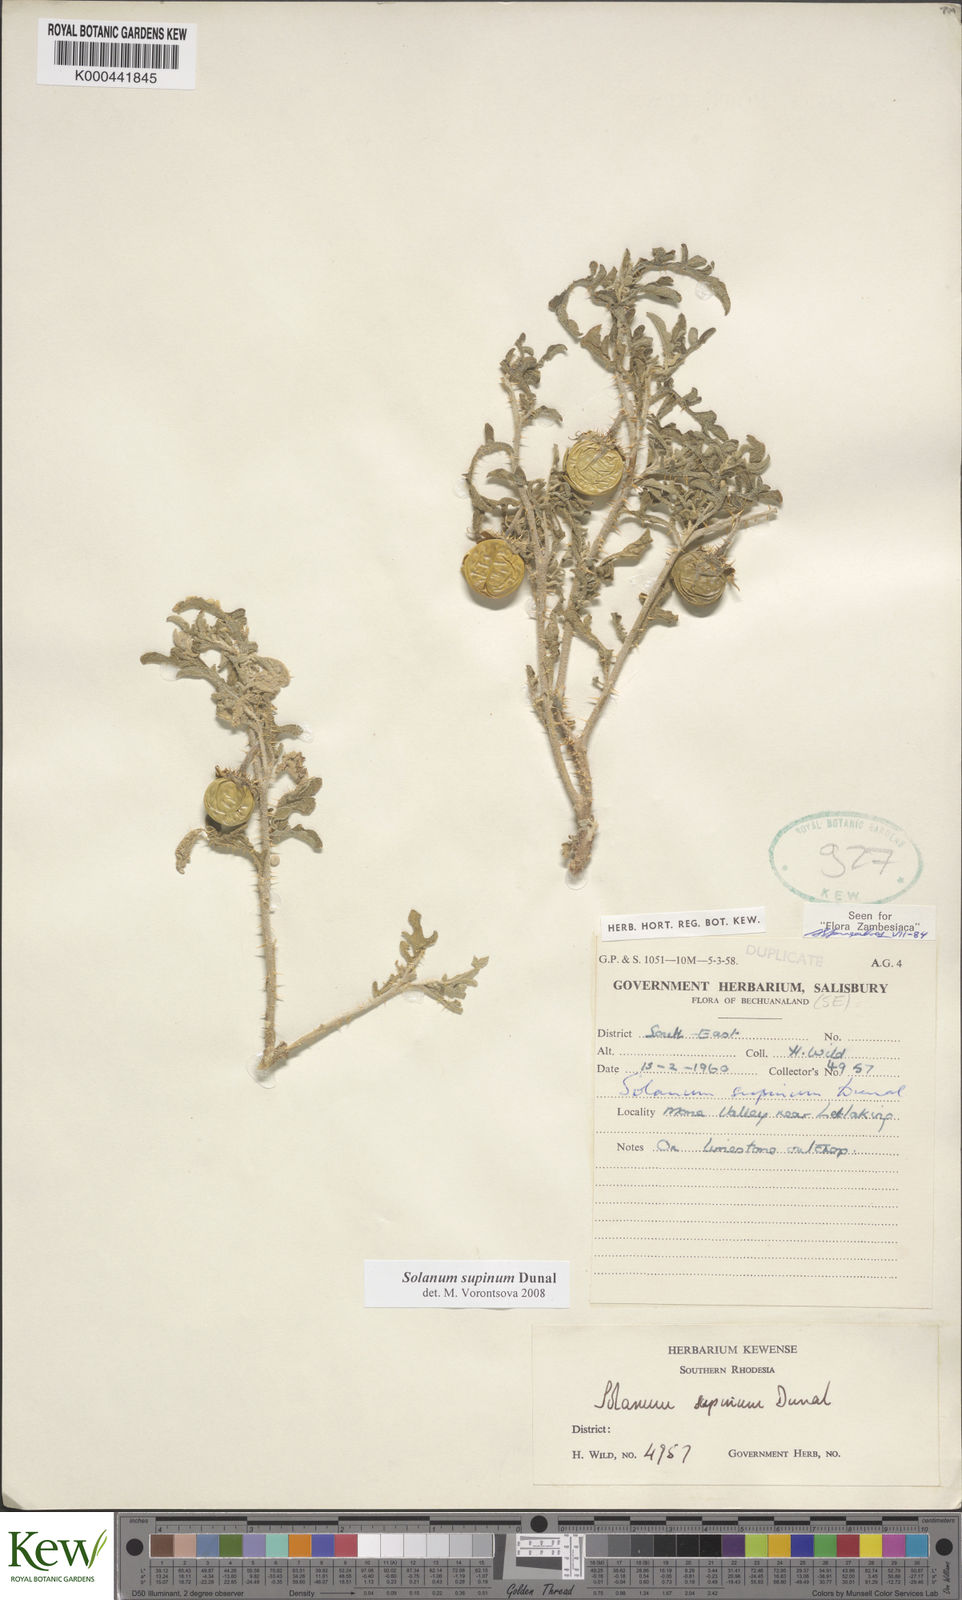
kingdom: Plantae
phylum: Tracheophyta
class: Magnoliopsida
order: Solanales
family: Solanaceae
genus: Solanum
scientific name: Solanum supinum
